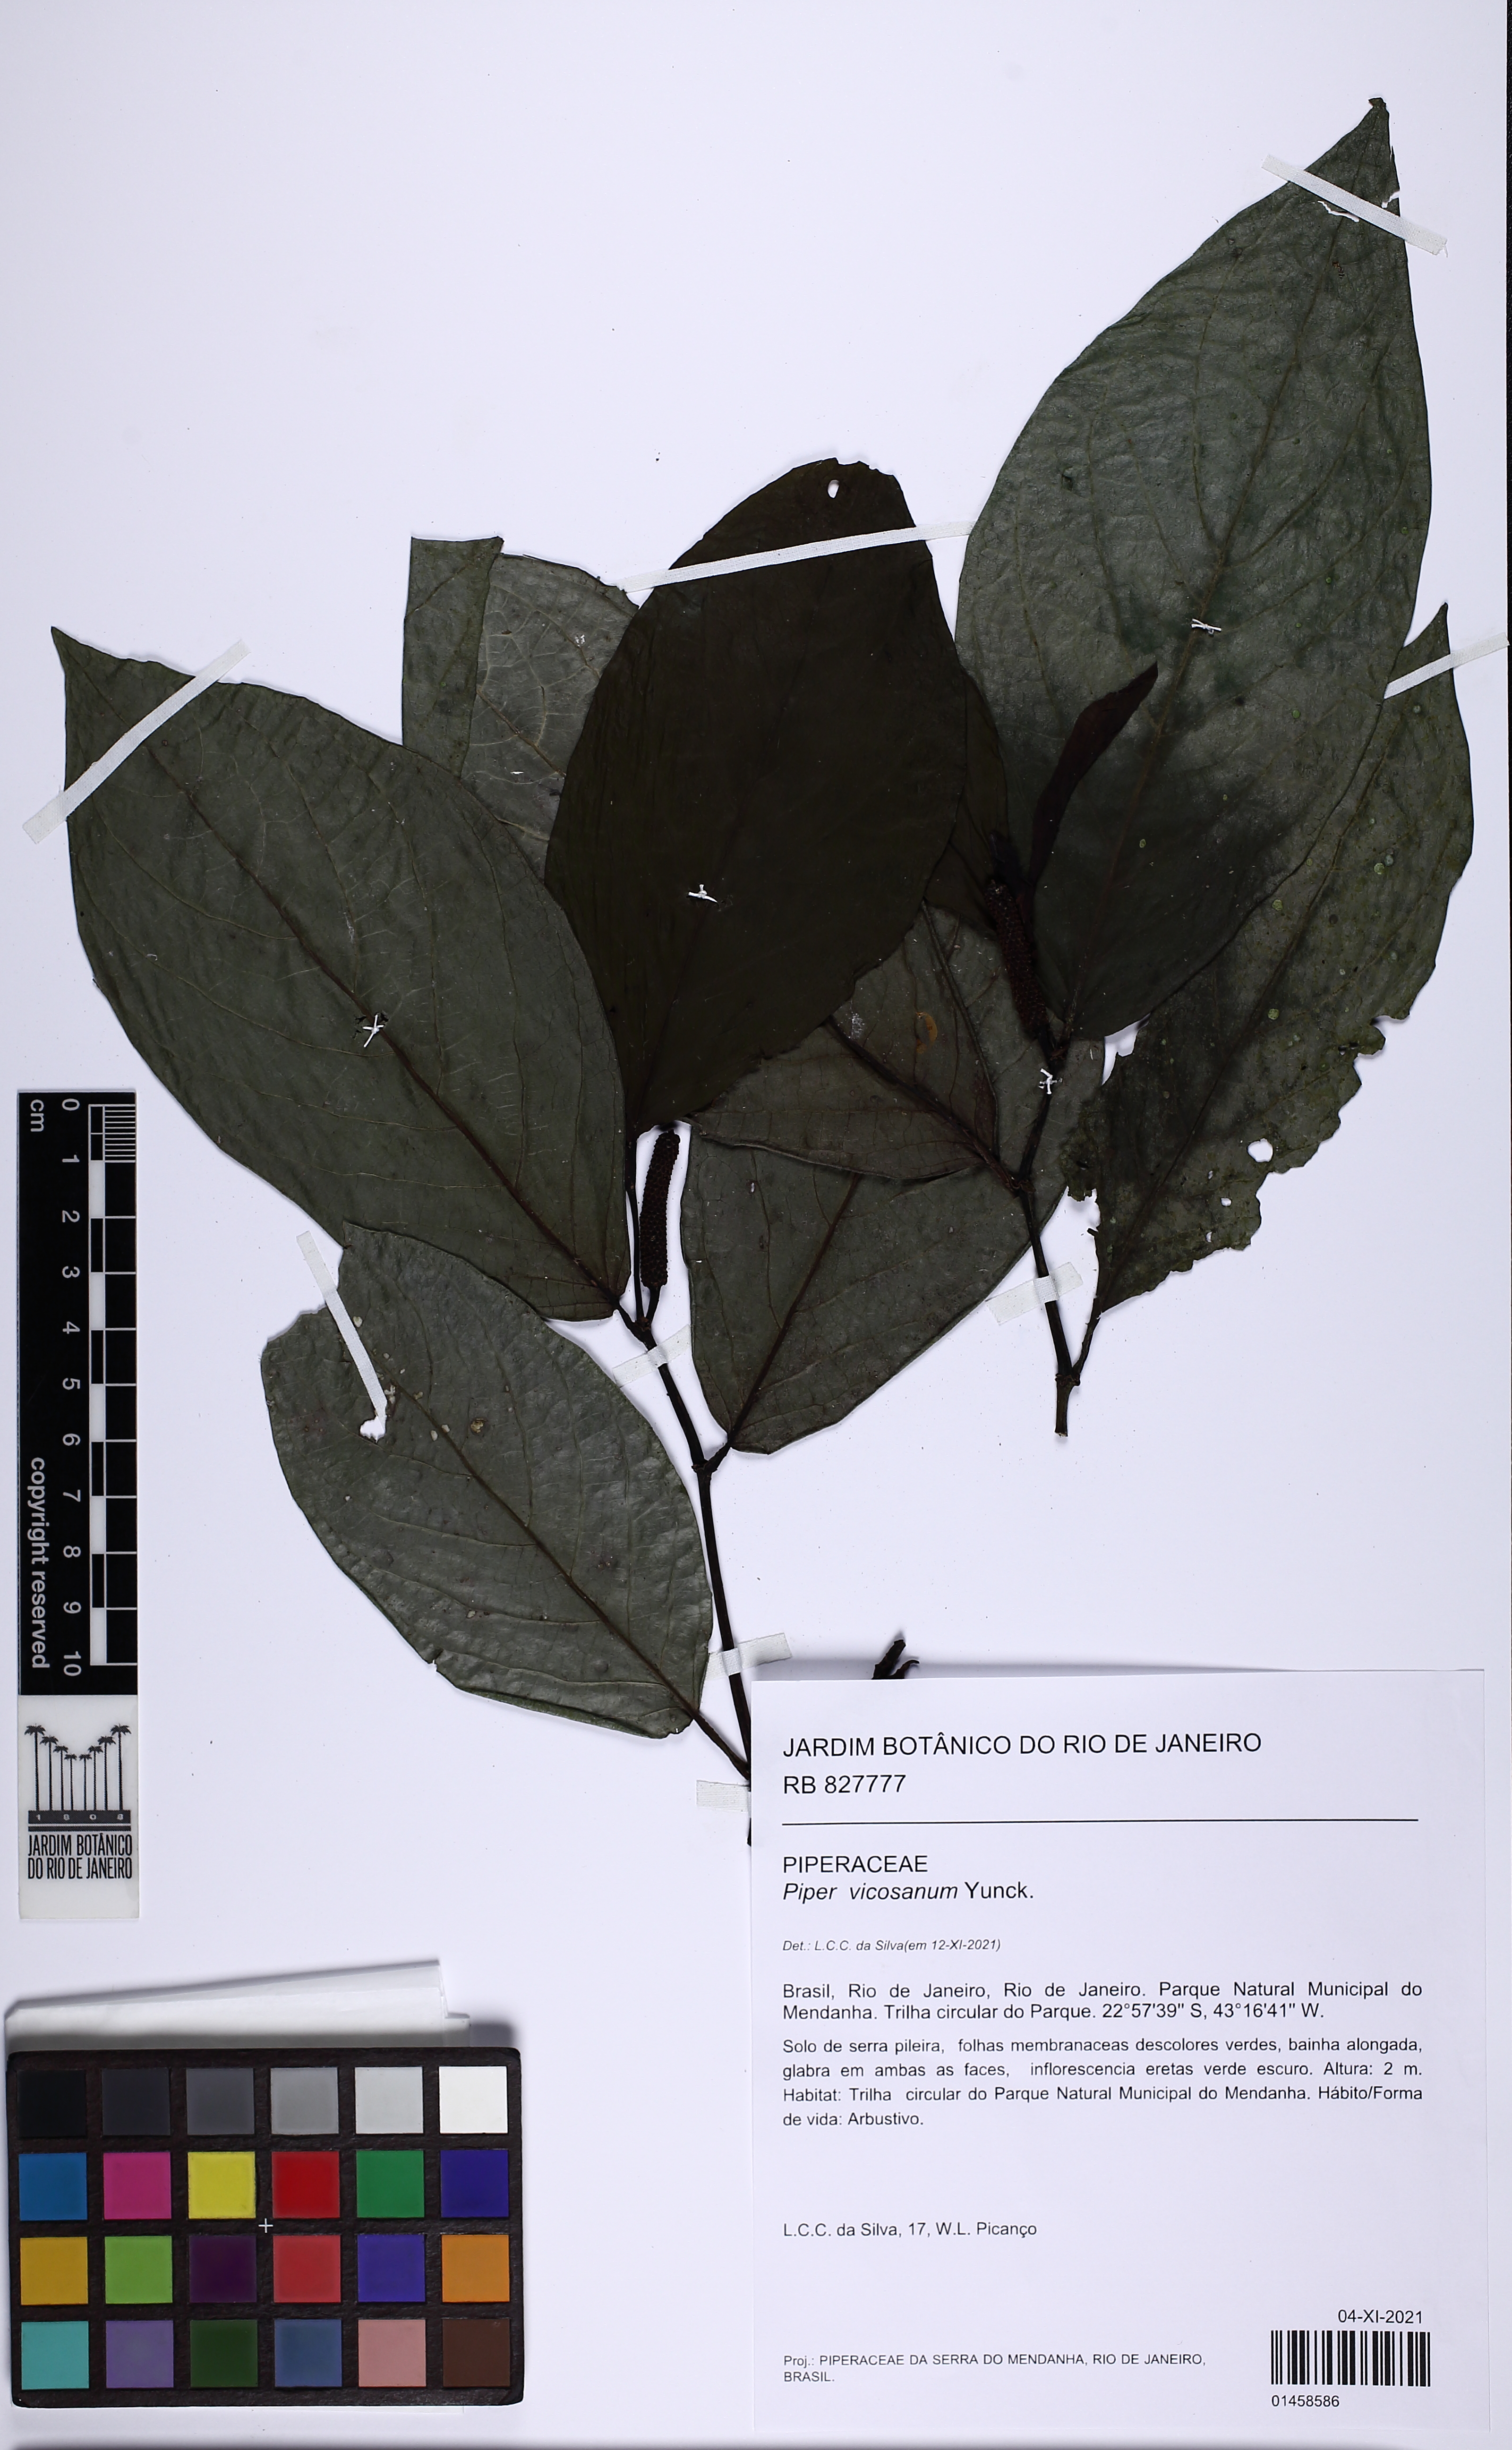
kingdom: Plantae
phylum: Tracheophyta
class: Magnoliopsida
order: Piperales
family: Piperaceae
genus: Piper
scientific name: Piper vicosanum
